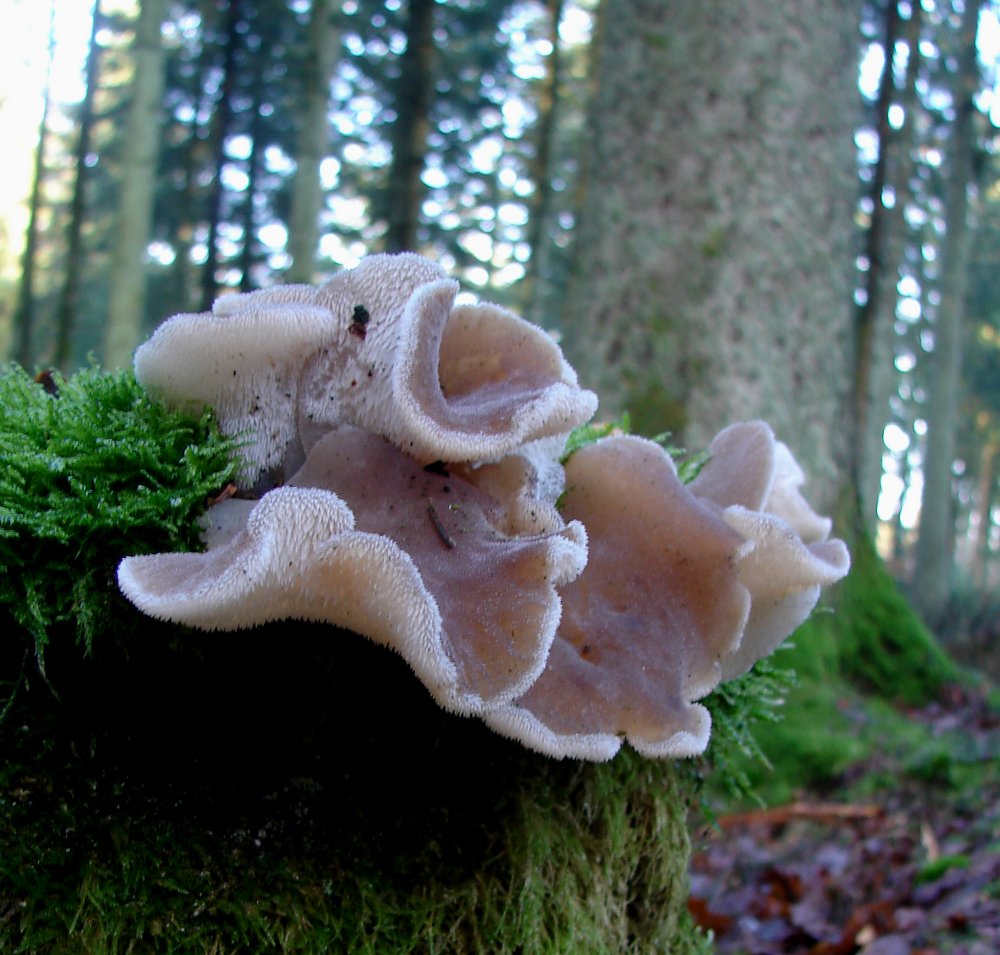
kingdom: Fungi
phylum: Basidiomycota
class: Agaricomycetes
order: Auriculariales
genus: Pseudohydnum
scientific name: Pseudohydnum gelatinosum
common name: bævretand
